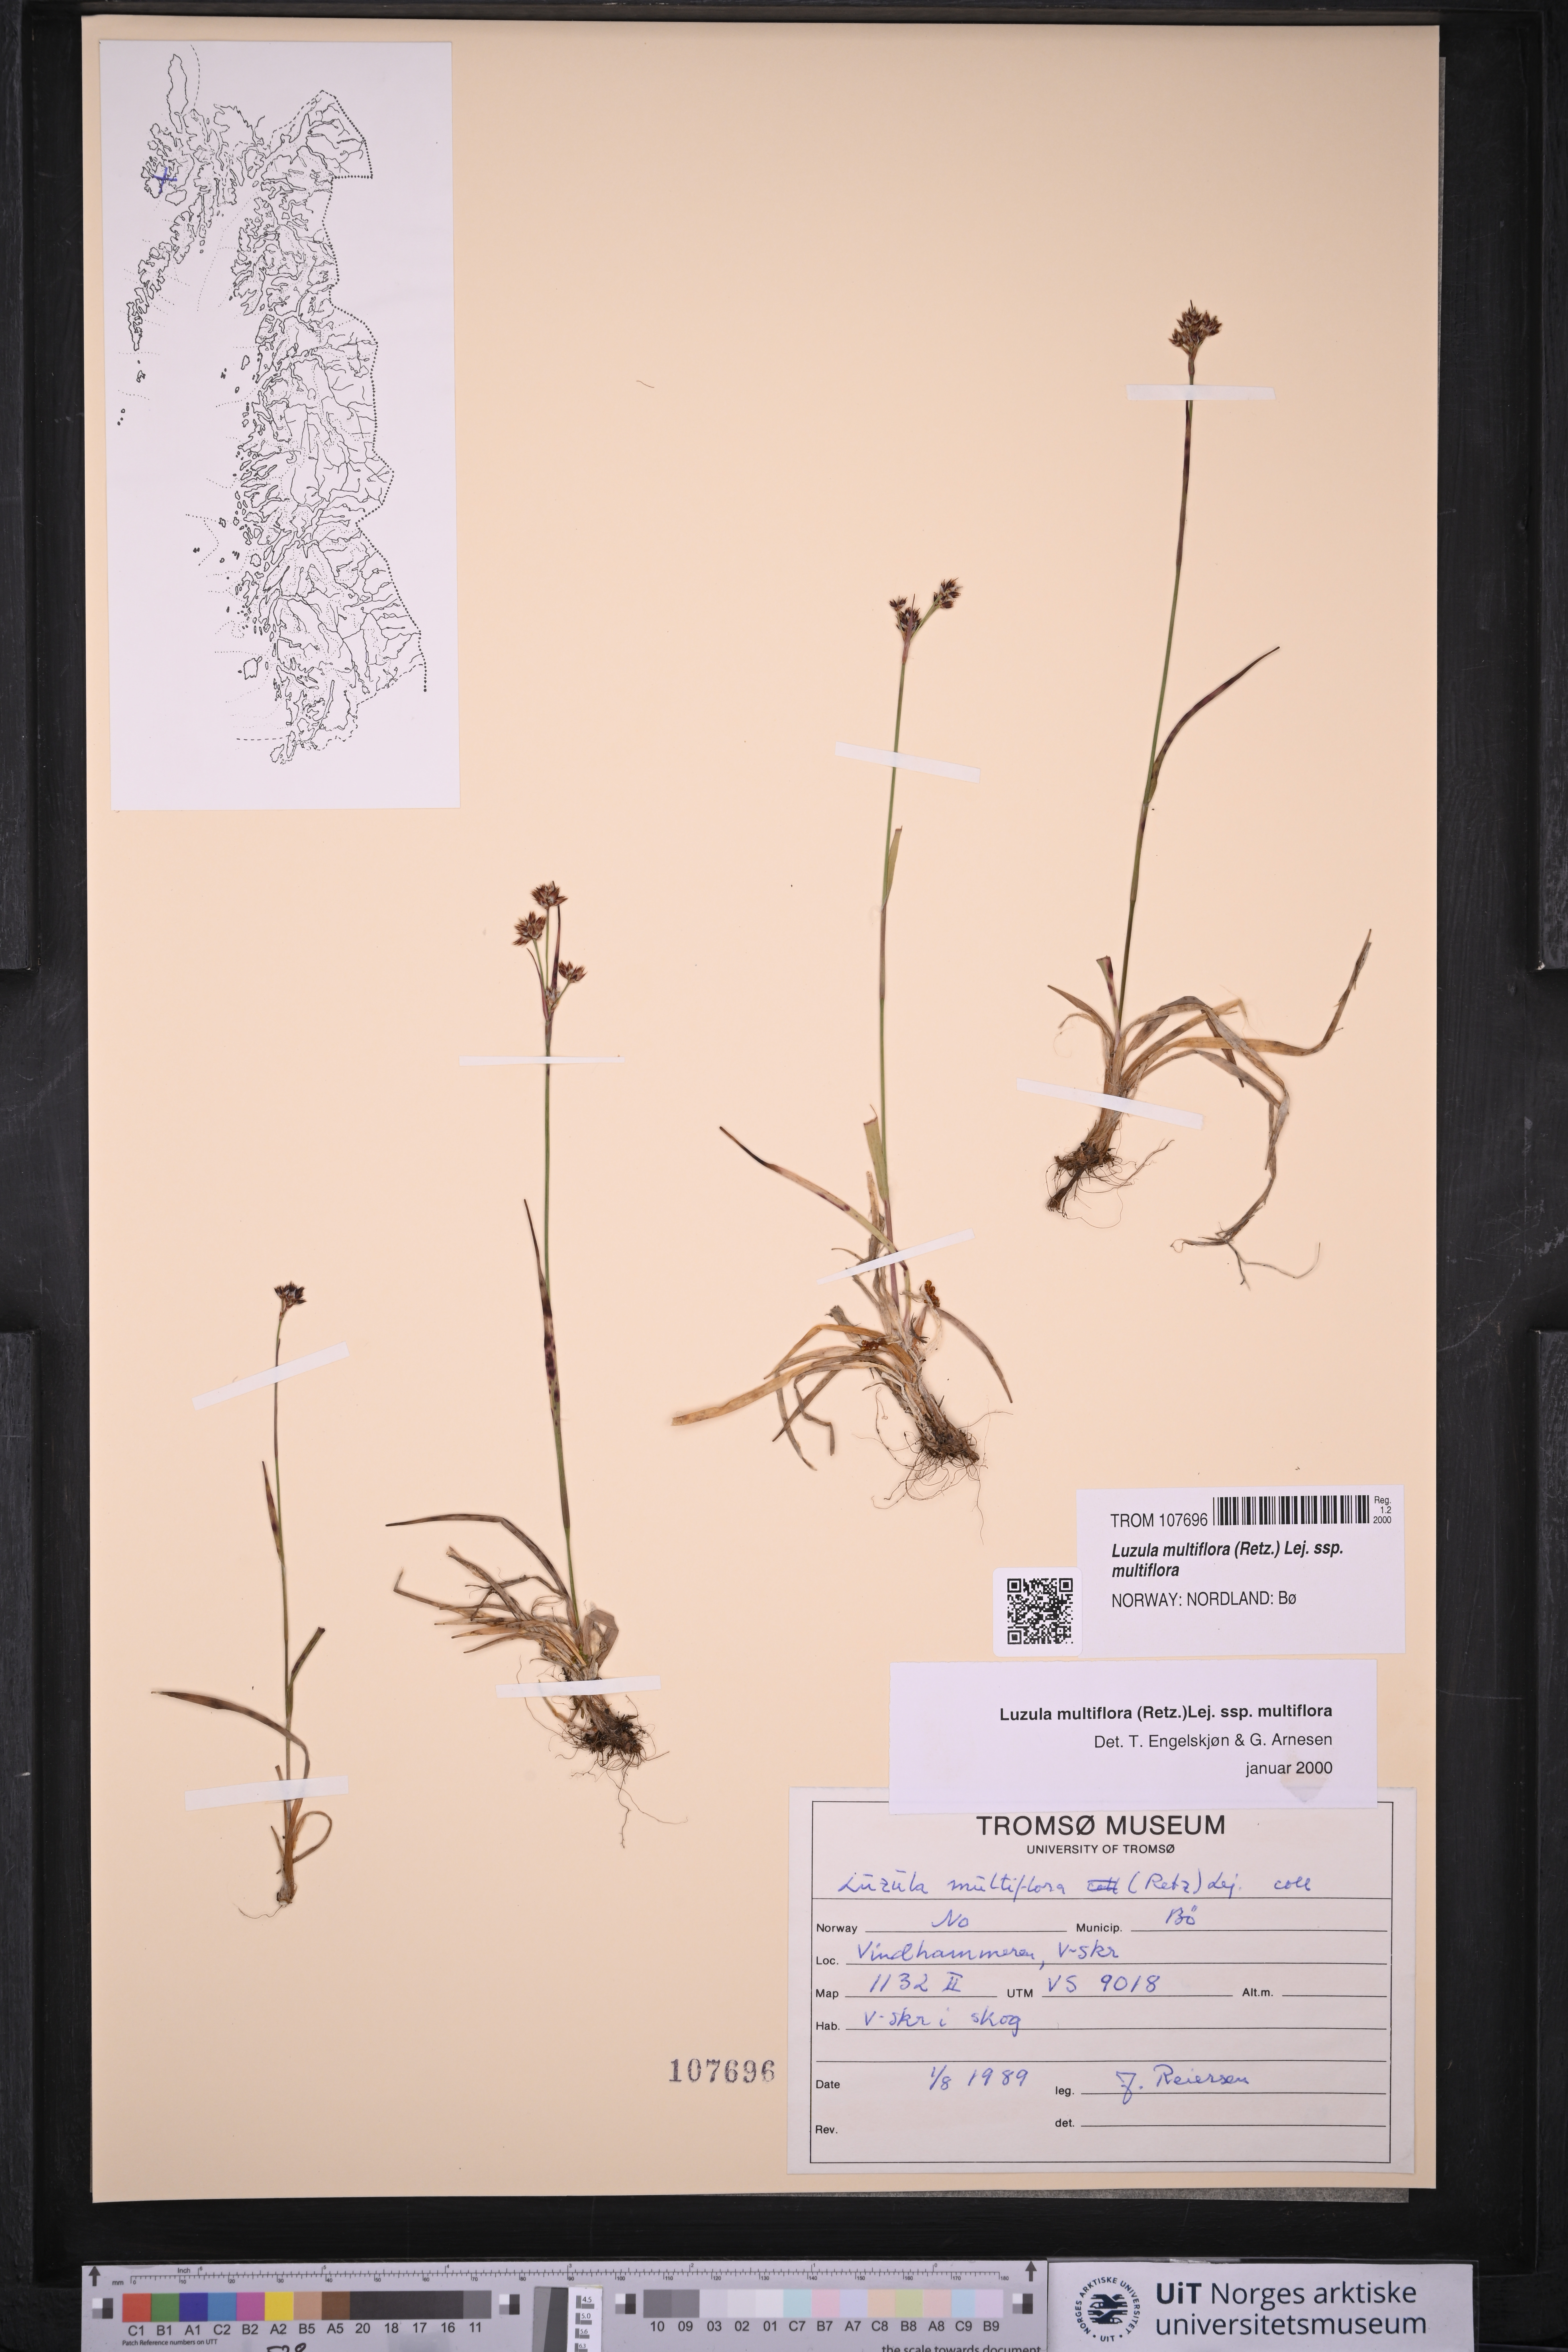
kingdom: Plantae
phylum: Tracheophyta
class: Liliopsida
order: Poales
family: Juncaceae
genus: Luzula
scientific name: Luzula multiflora
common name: Heath wood-rush
